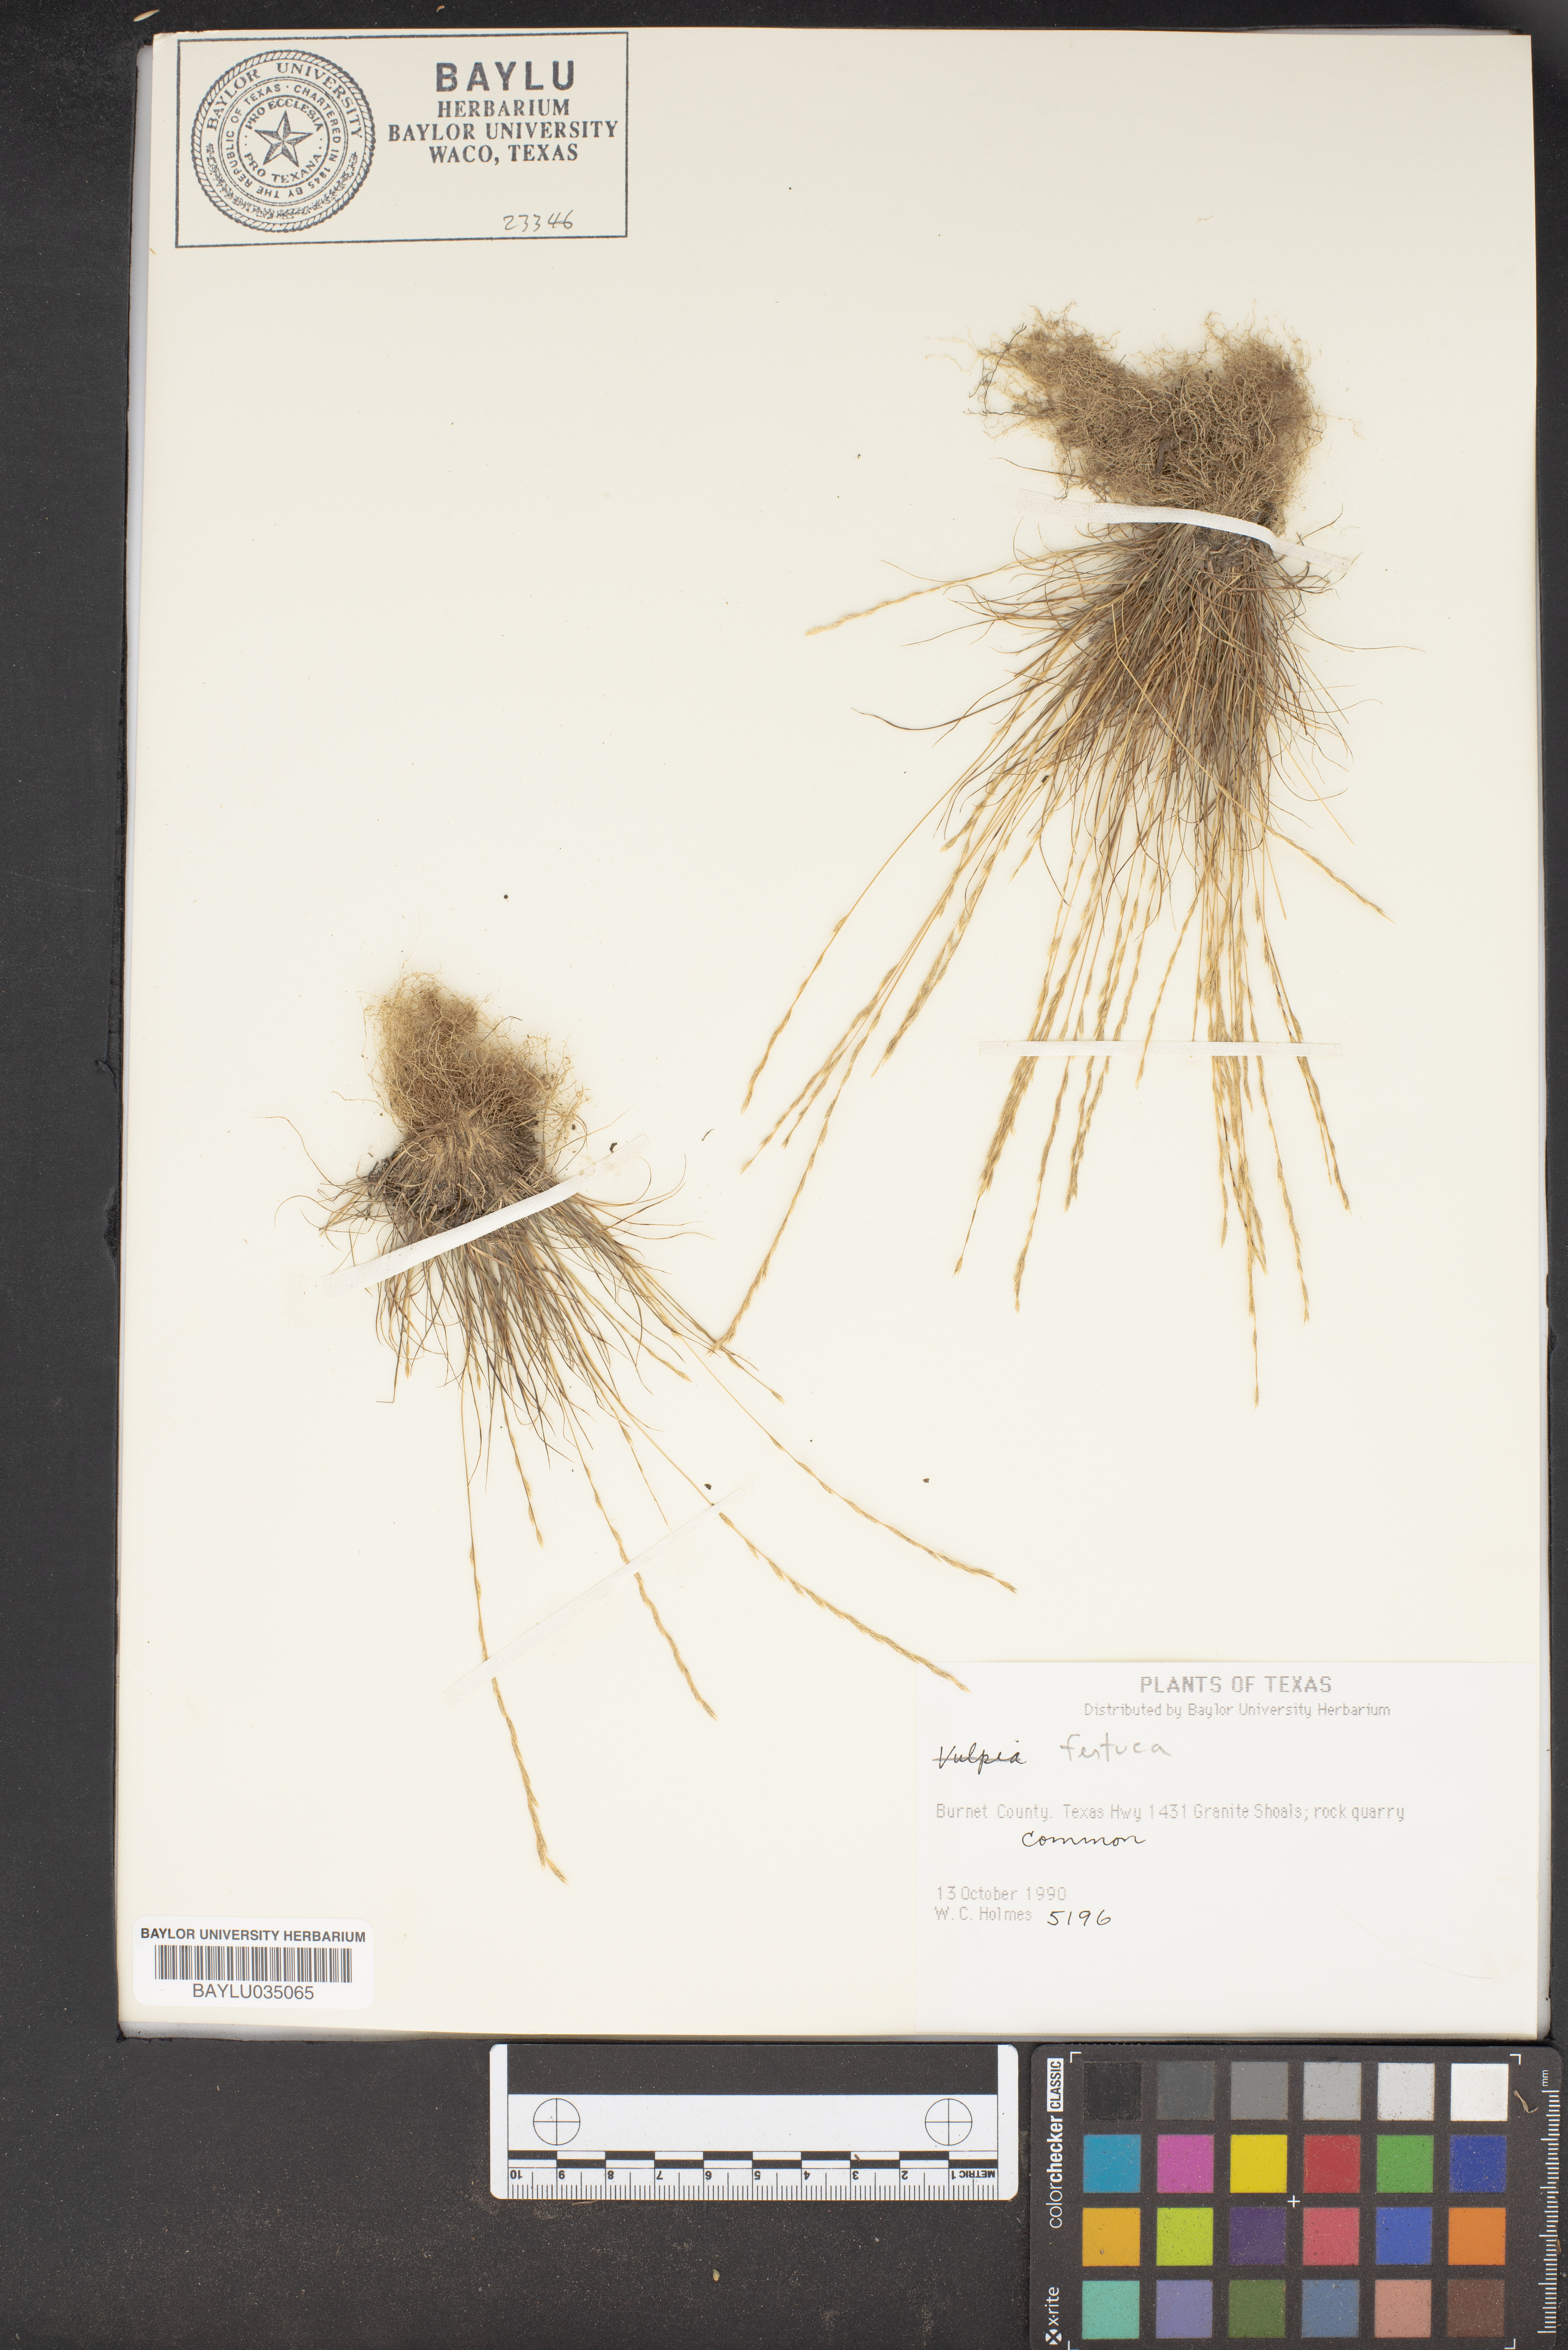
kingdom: Plantae
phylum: Tracheophyta
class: Liliopsida
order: Poales
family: Poaceae
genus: Festuca
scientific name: Festuca
